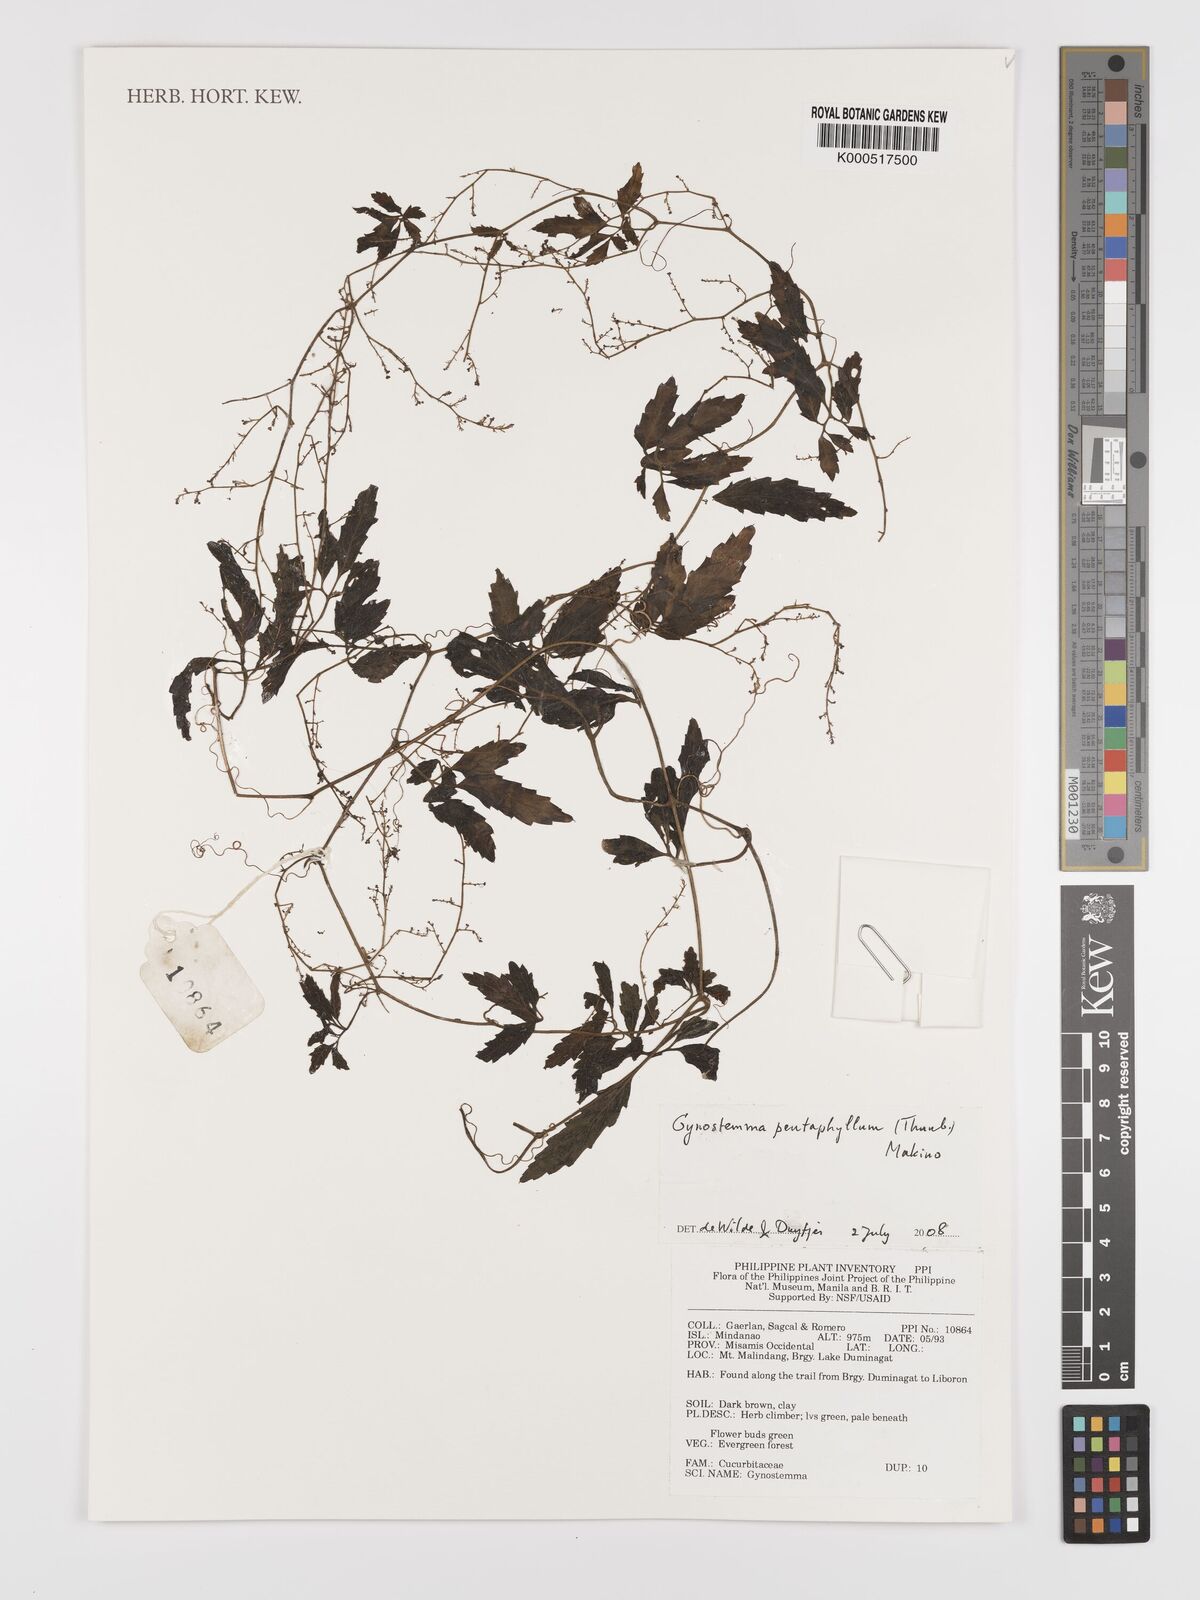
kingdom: Plantae
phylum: Tracheophyta
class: Magnoliopsida
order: Cucurbitales
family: Cucurbitaceae
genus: Gynostemma
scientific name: Gynostemma pentaphyllum
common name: Gynostemma
